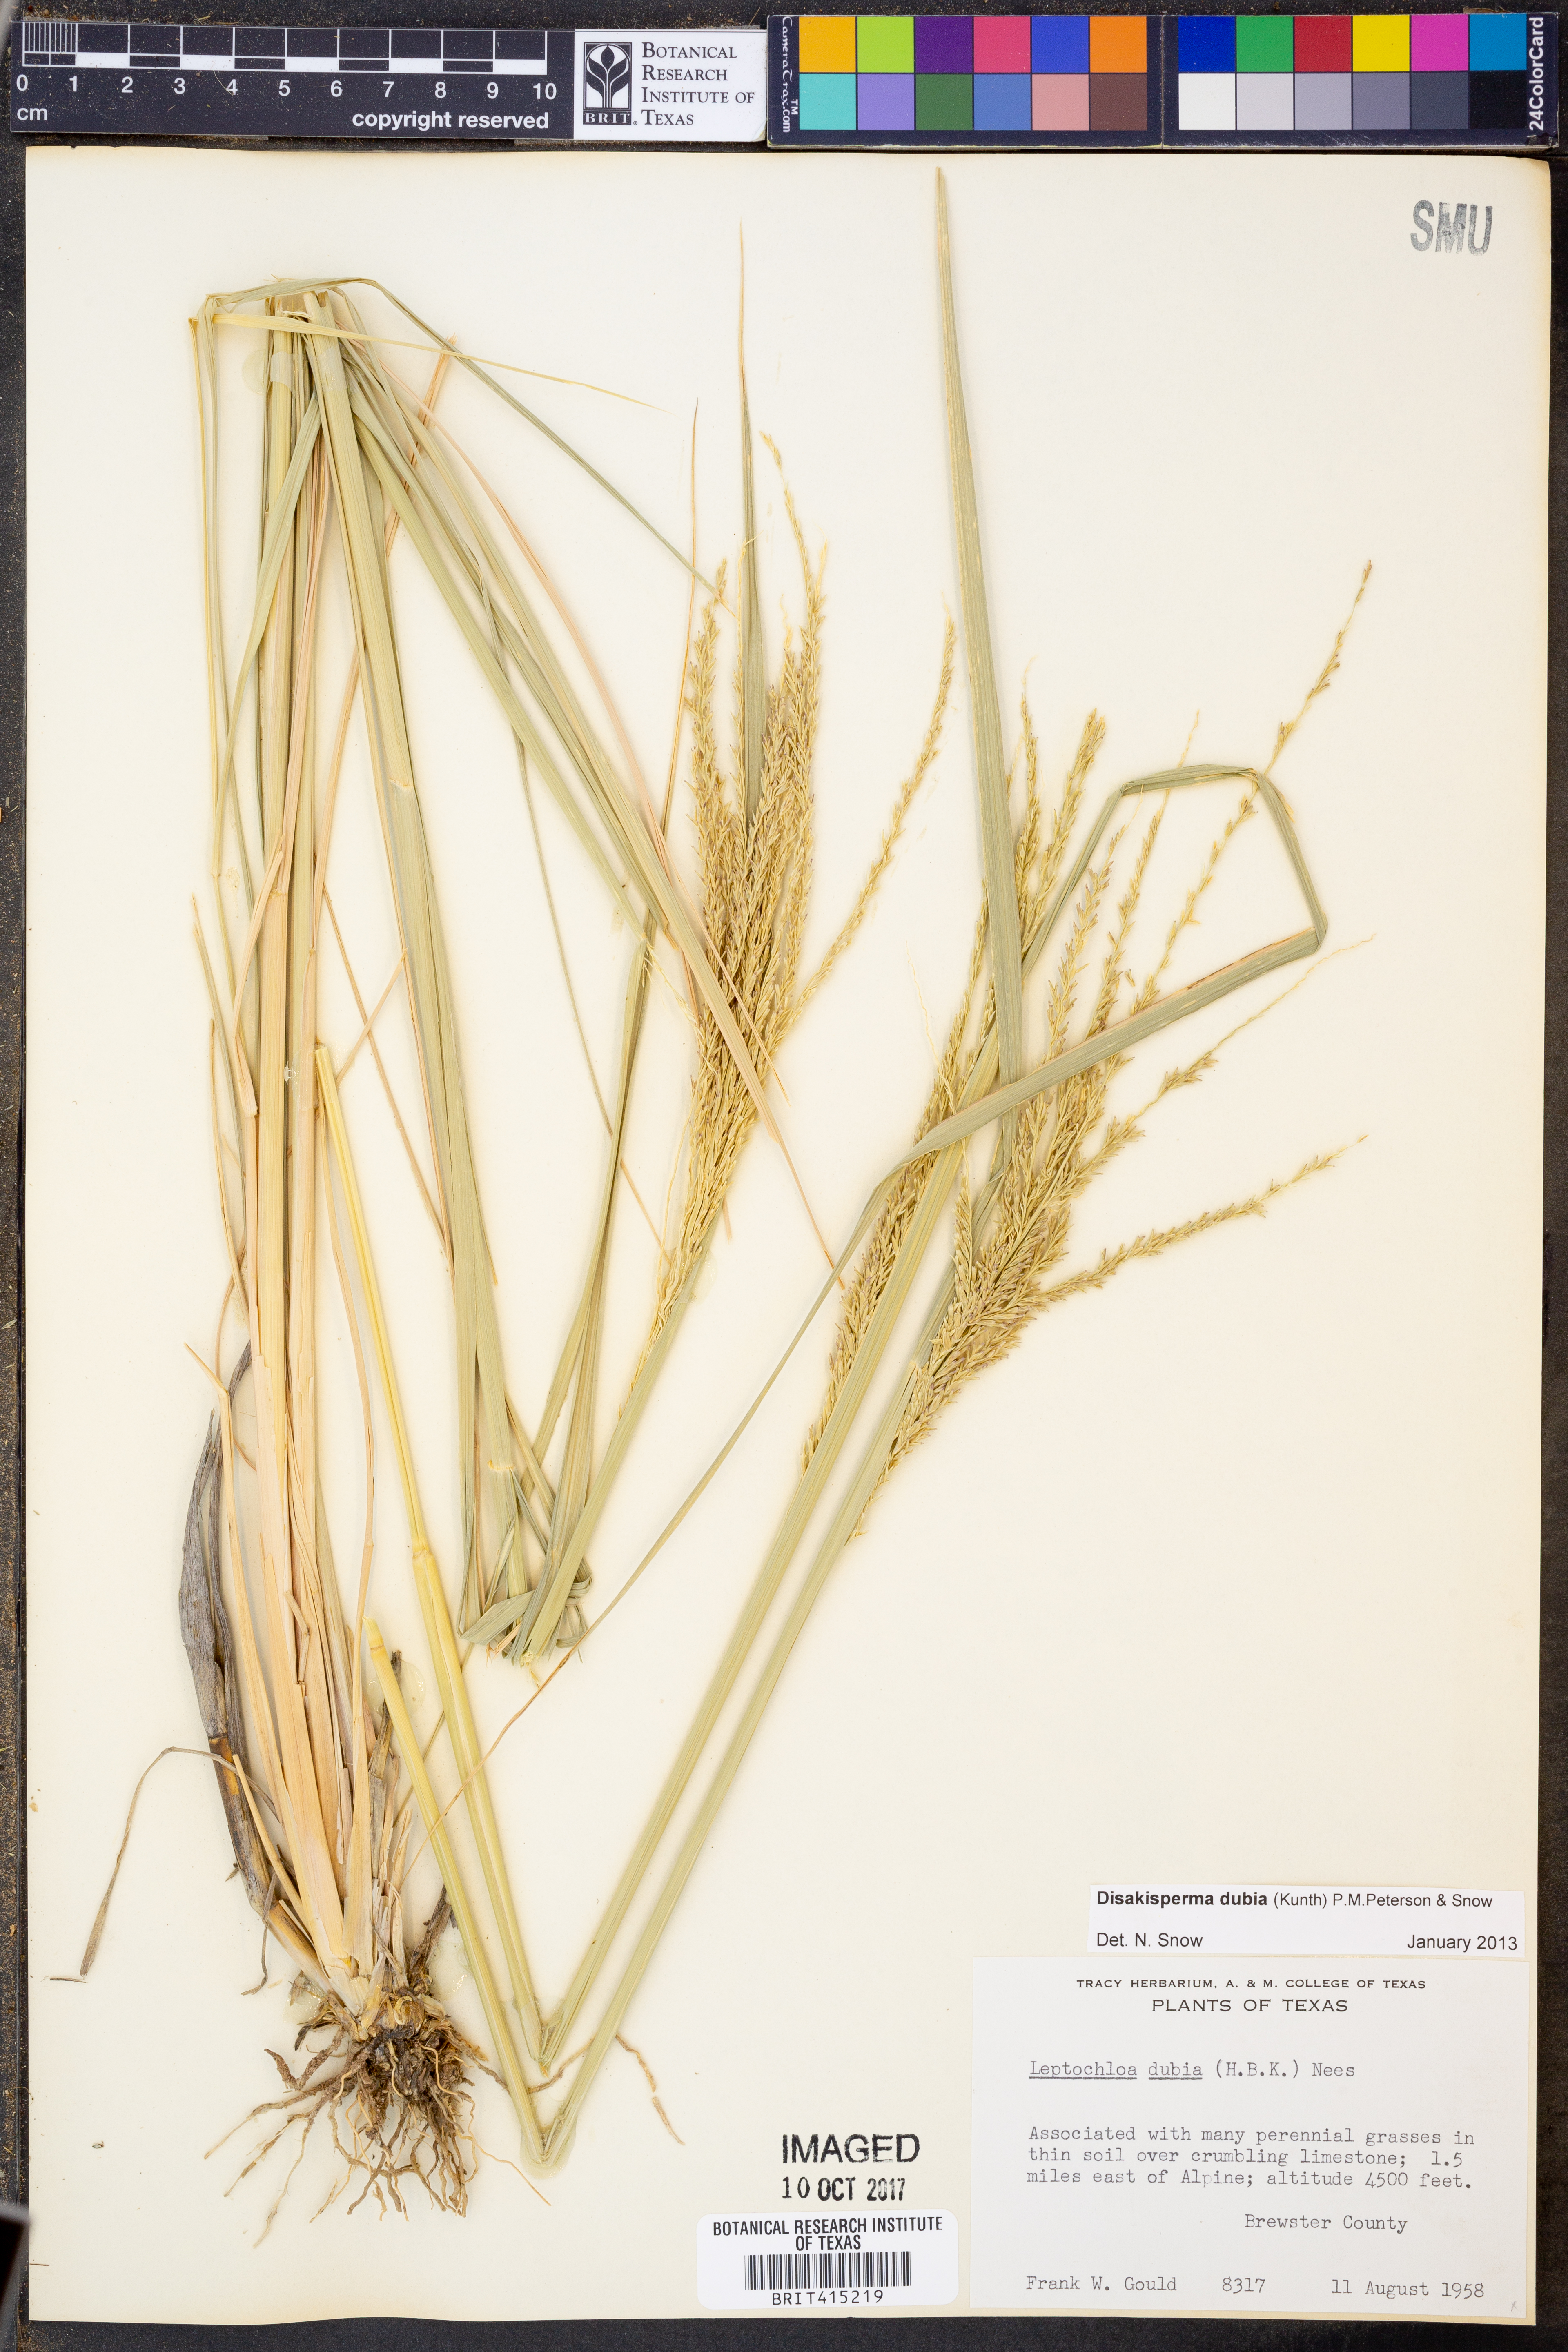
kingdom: Plantae
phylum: Tracheophyta
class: Liliopsida
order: Poales
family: Poaceae
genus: Disakisperma
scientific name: Disakisperma dubium
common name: Green sprangletop
